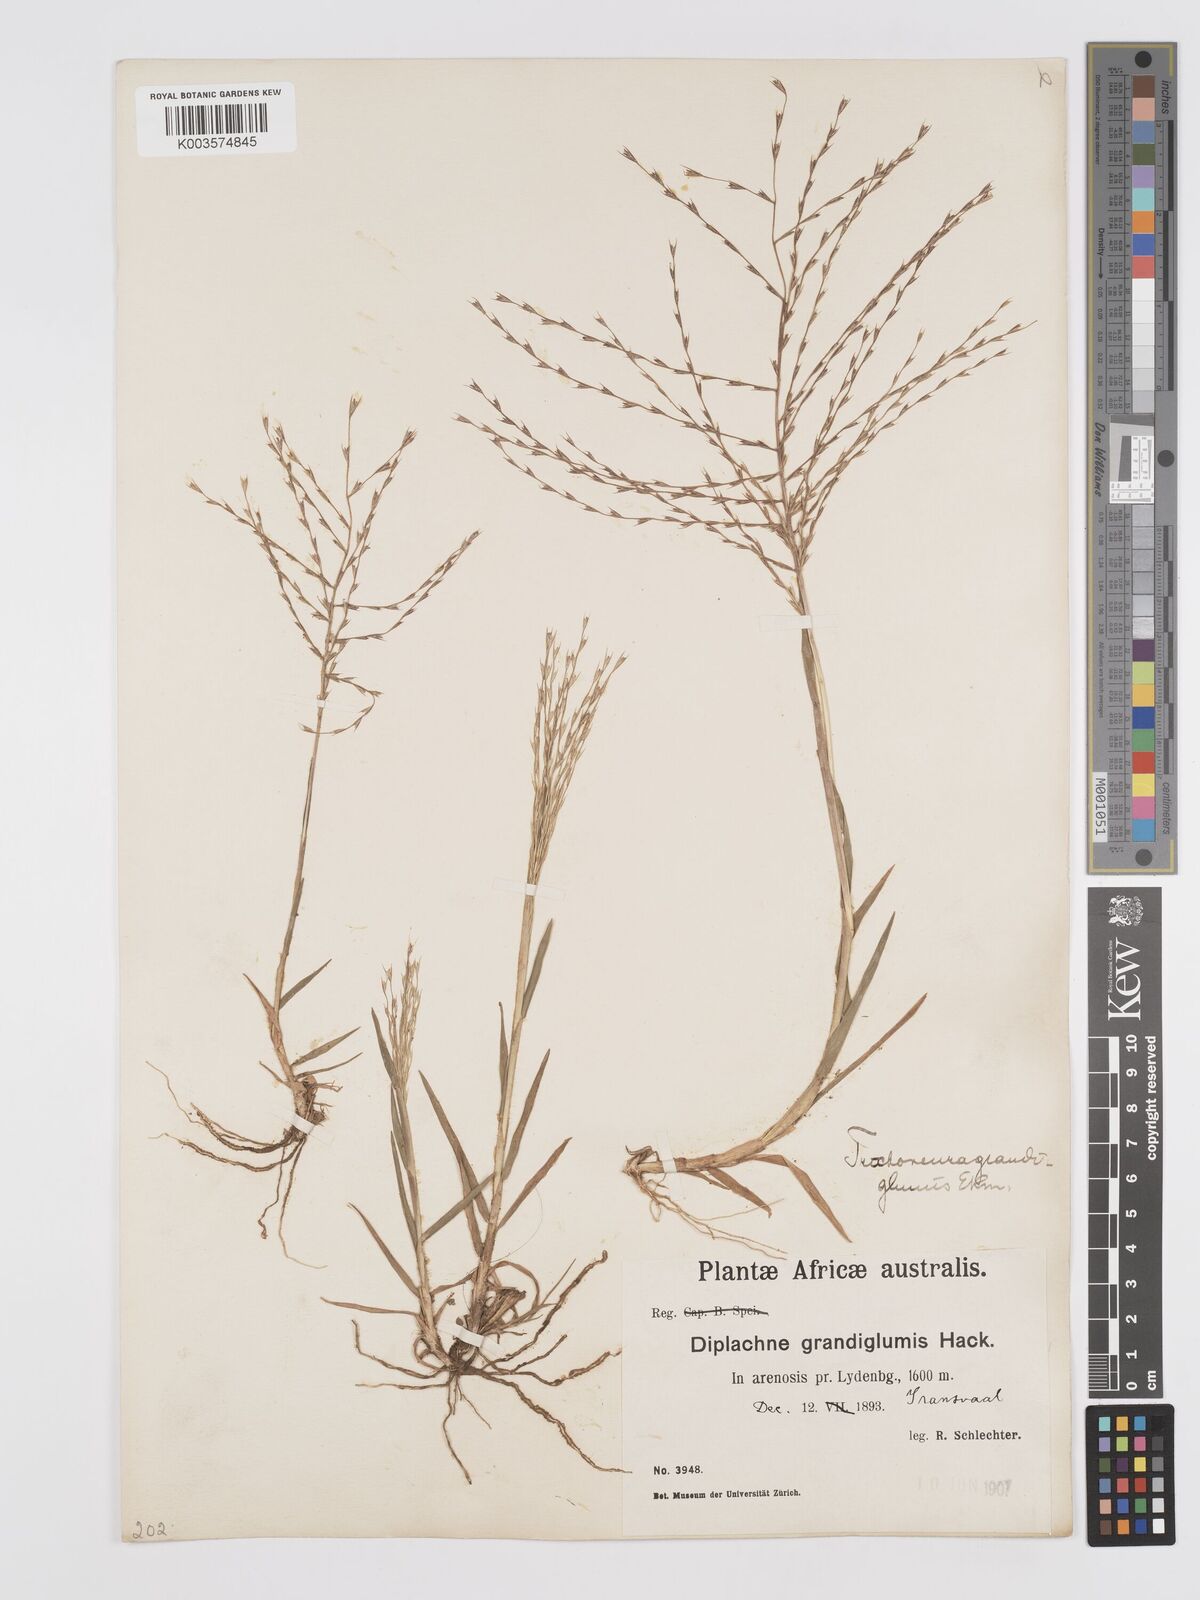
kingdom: Plantae
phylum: Tracheophyta
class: Liliopsida
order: Poales
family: Poaceae
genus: Trichoneura
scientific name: Trichoneura grandiglumis
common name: Rolling grass
